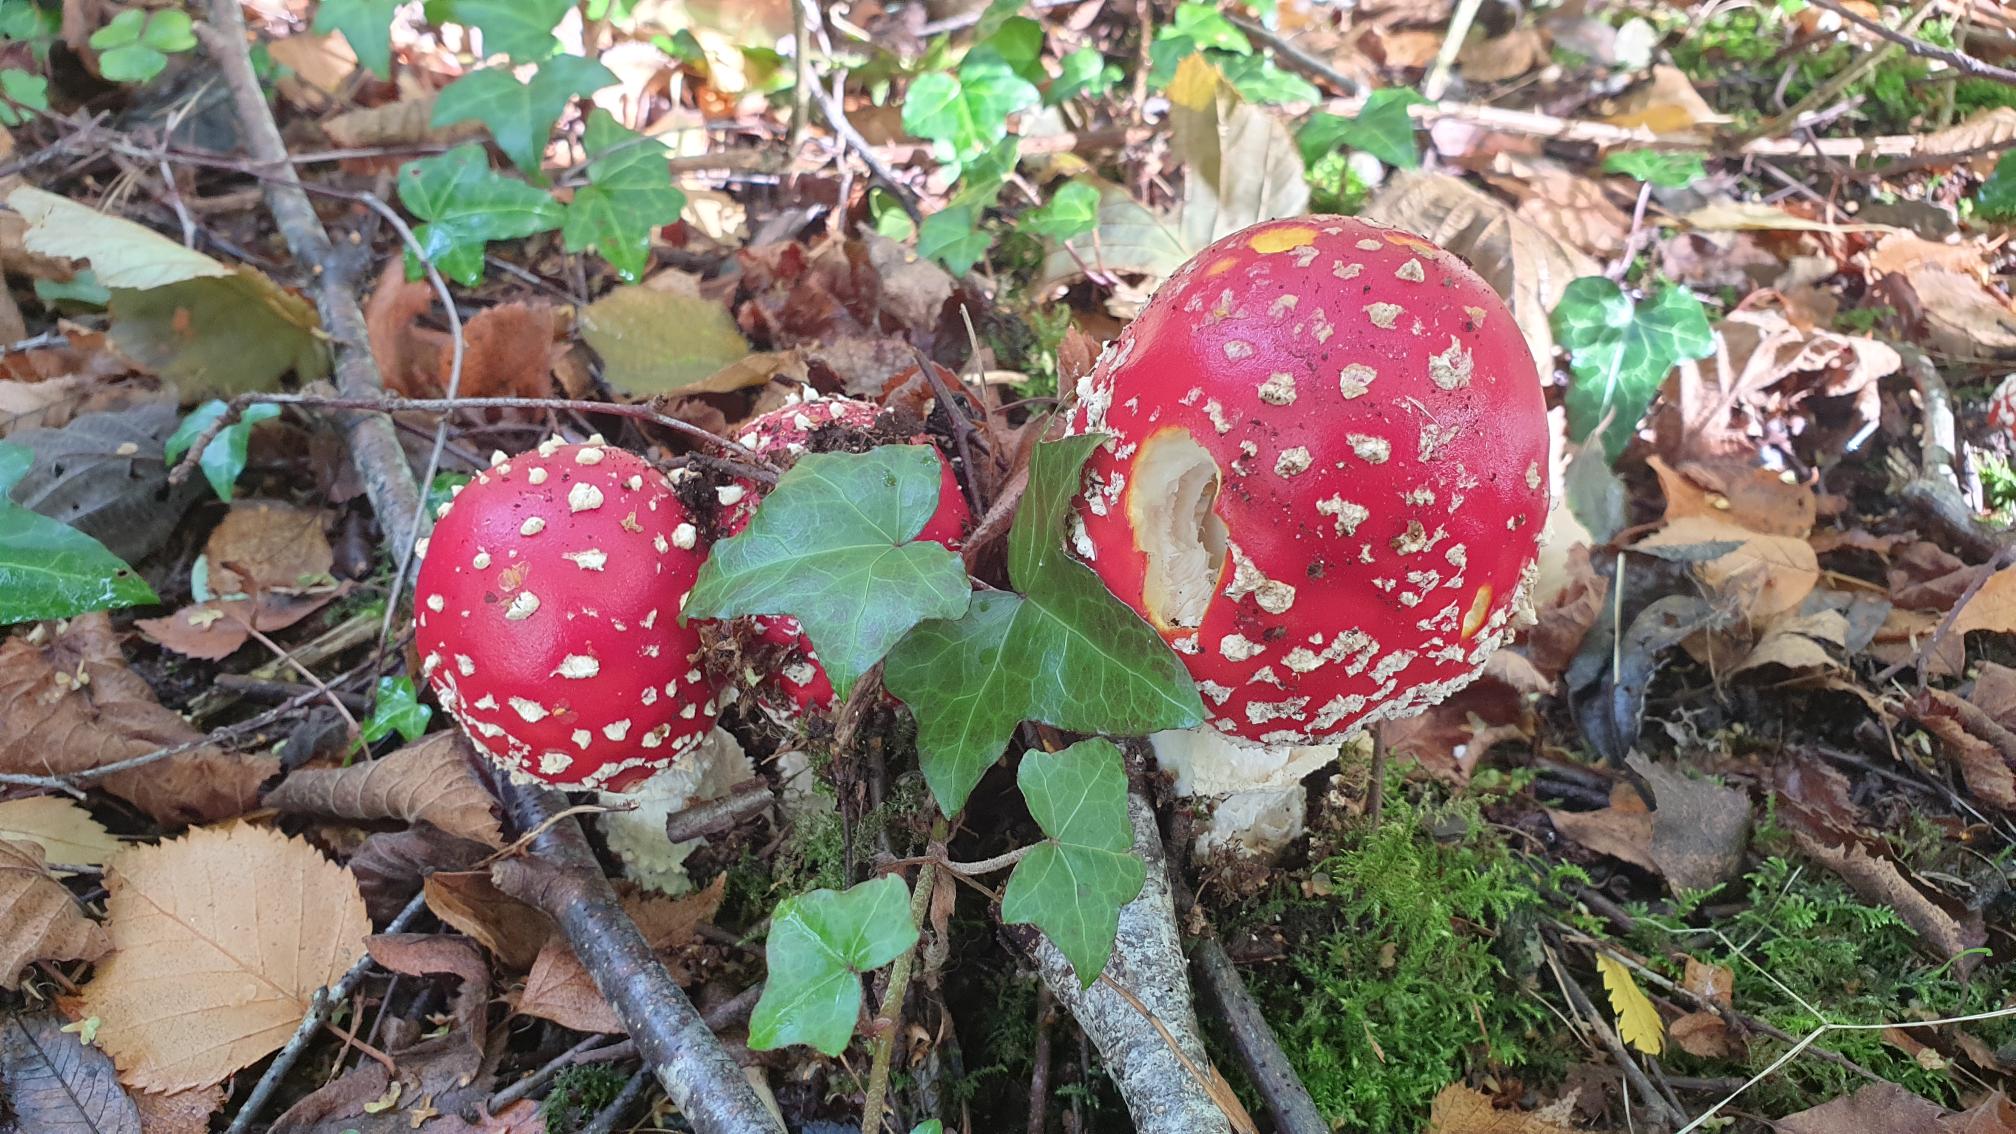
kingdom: Fungi
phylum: Basidiomycota
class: Agaricomycetes
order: Agaricales
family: Amanitaceae
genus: Amanita
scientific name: Amanita muscaria
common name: Rød fluesvamp
